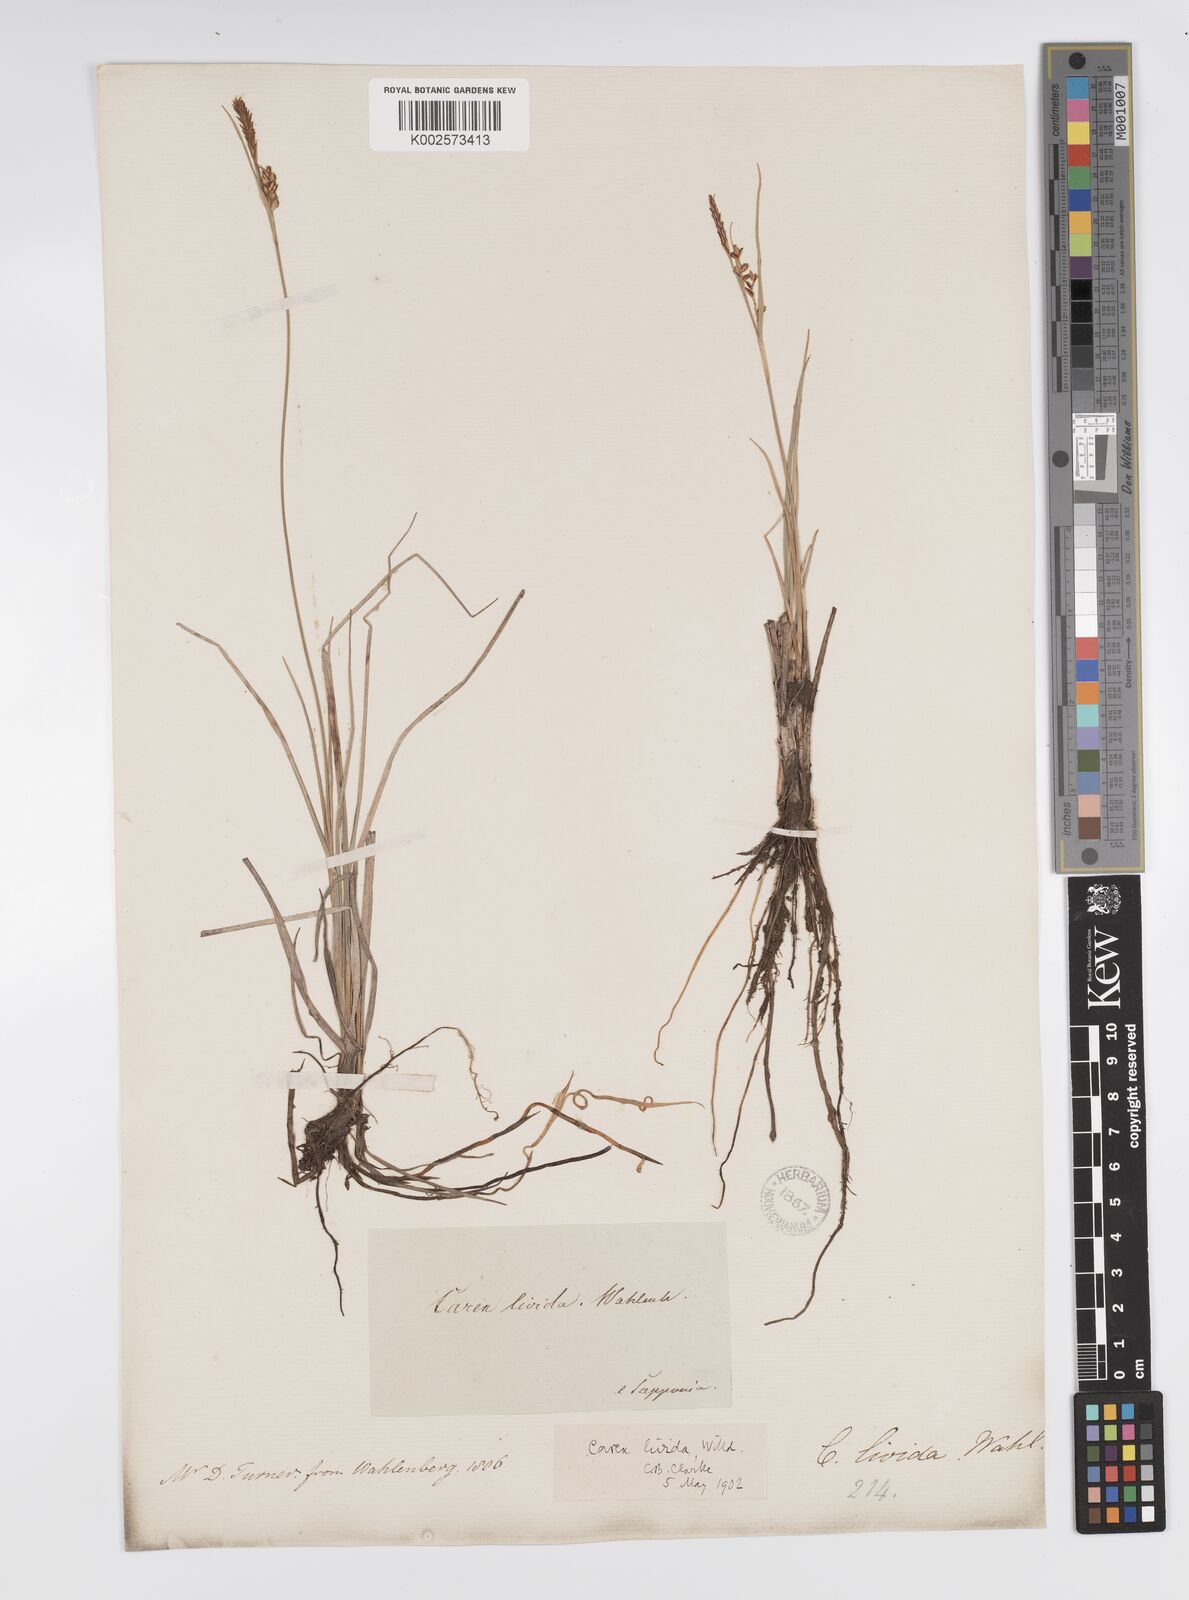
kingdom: Plantae
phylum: Tracheophyta
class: Liliopsida
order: Poales
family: Cyperaceae
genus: Carex
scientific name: Carex livida
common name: Livid sedge
